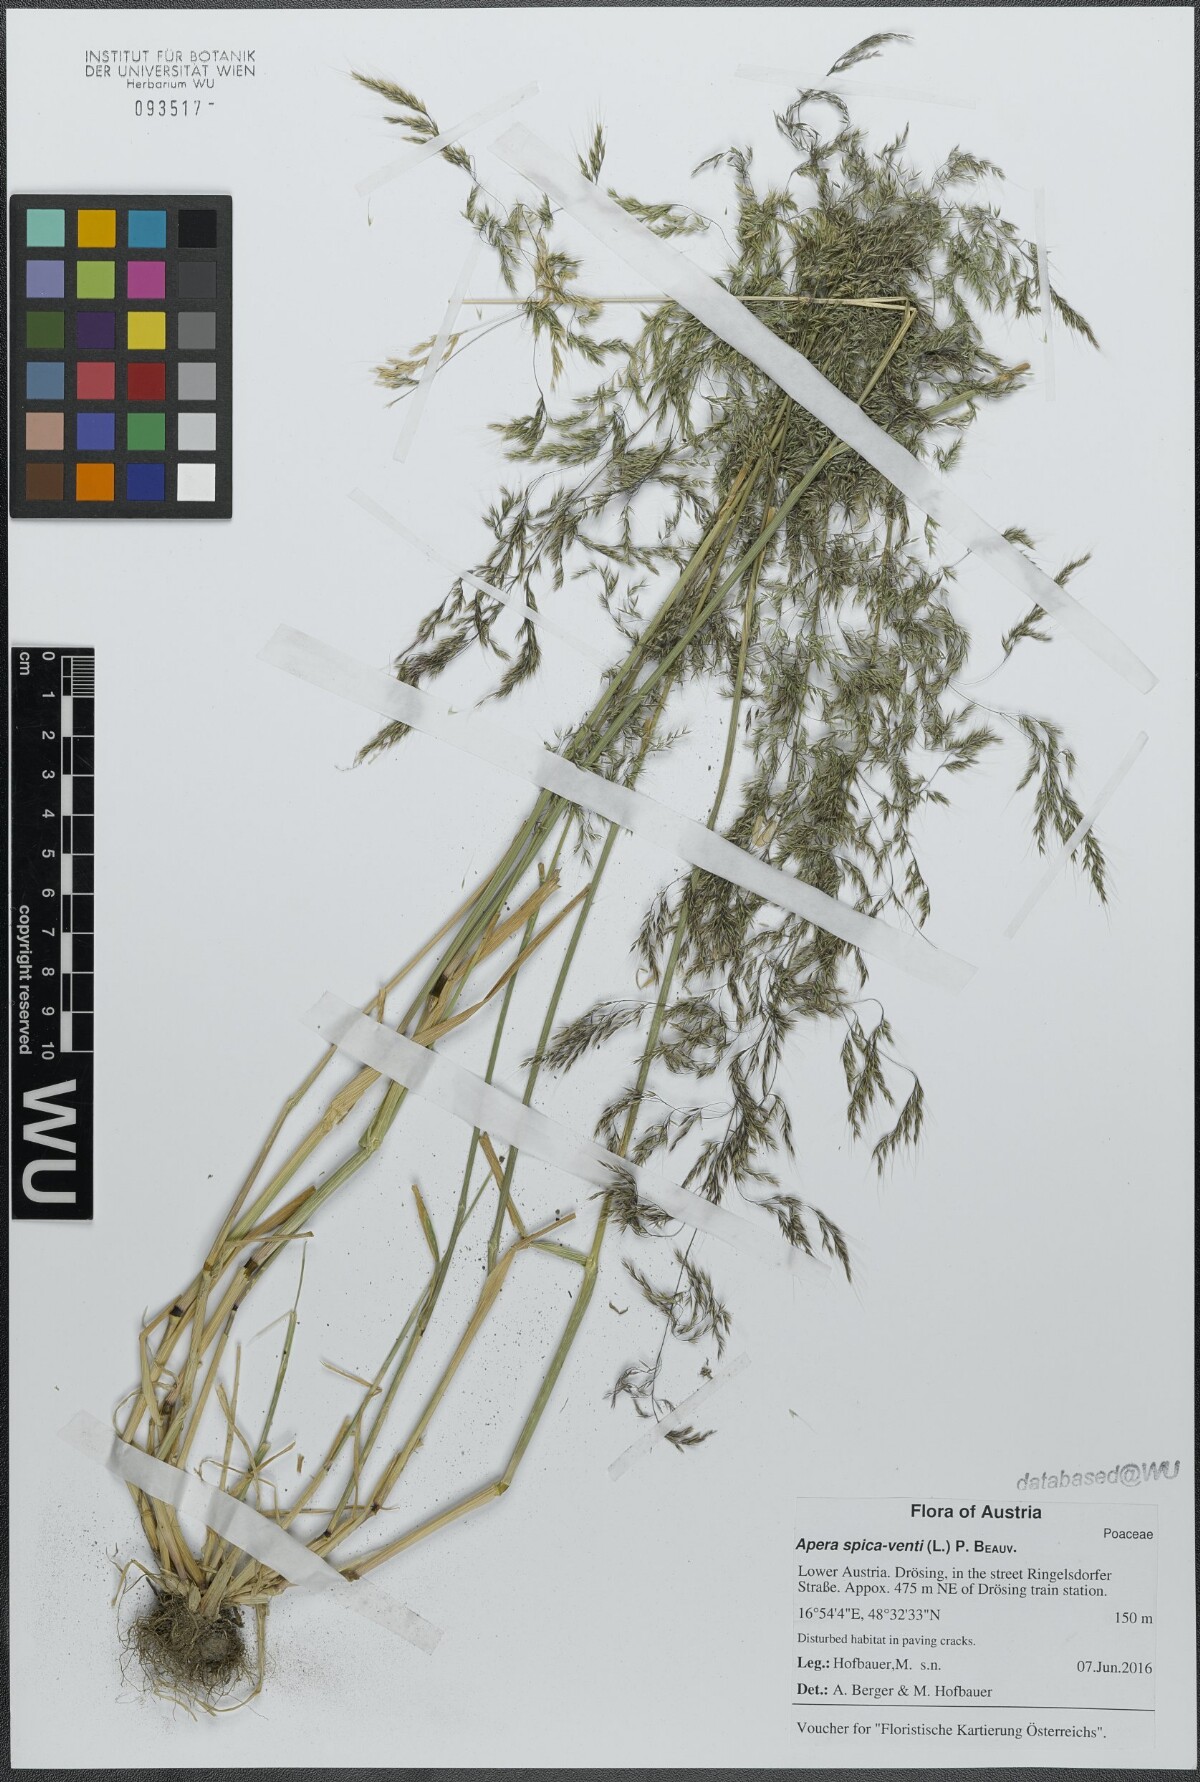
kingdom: Plantae
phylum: Tracheophyta
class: Liliopsida
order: Poales
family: Poaceae
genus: Apera
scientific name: Apera spica-venti
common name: Loose silky-bent
